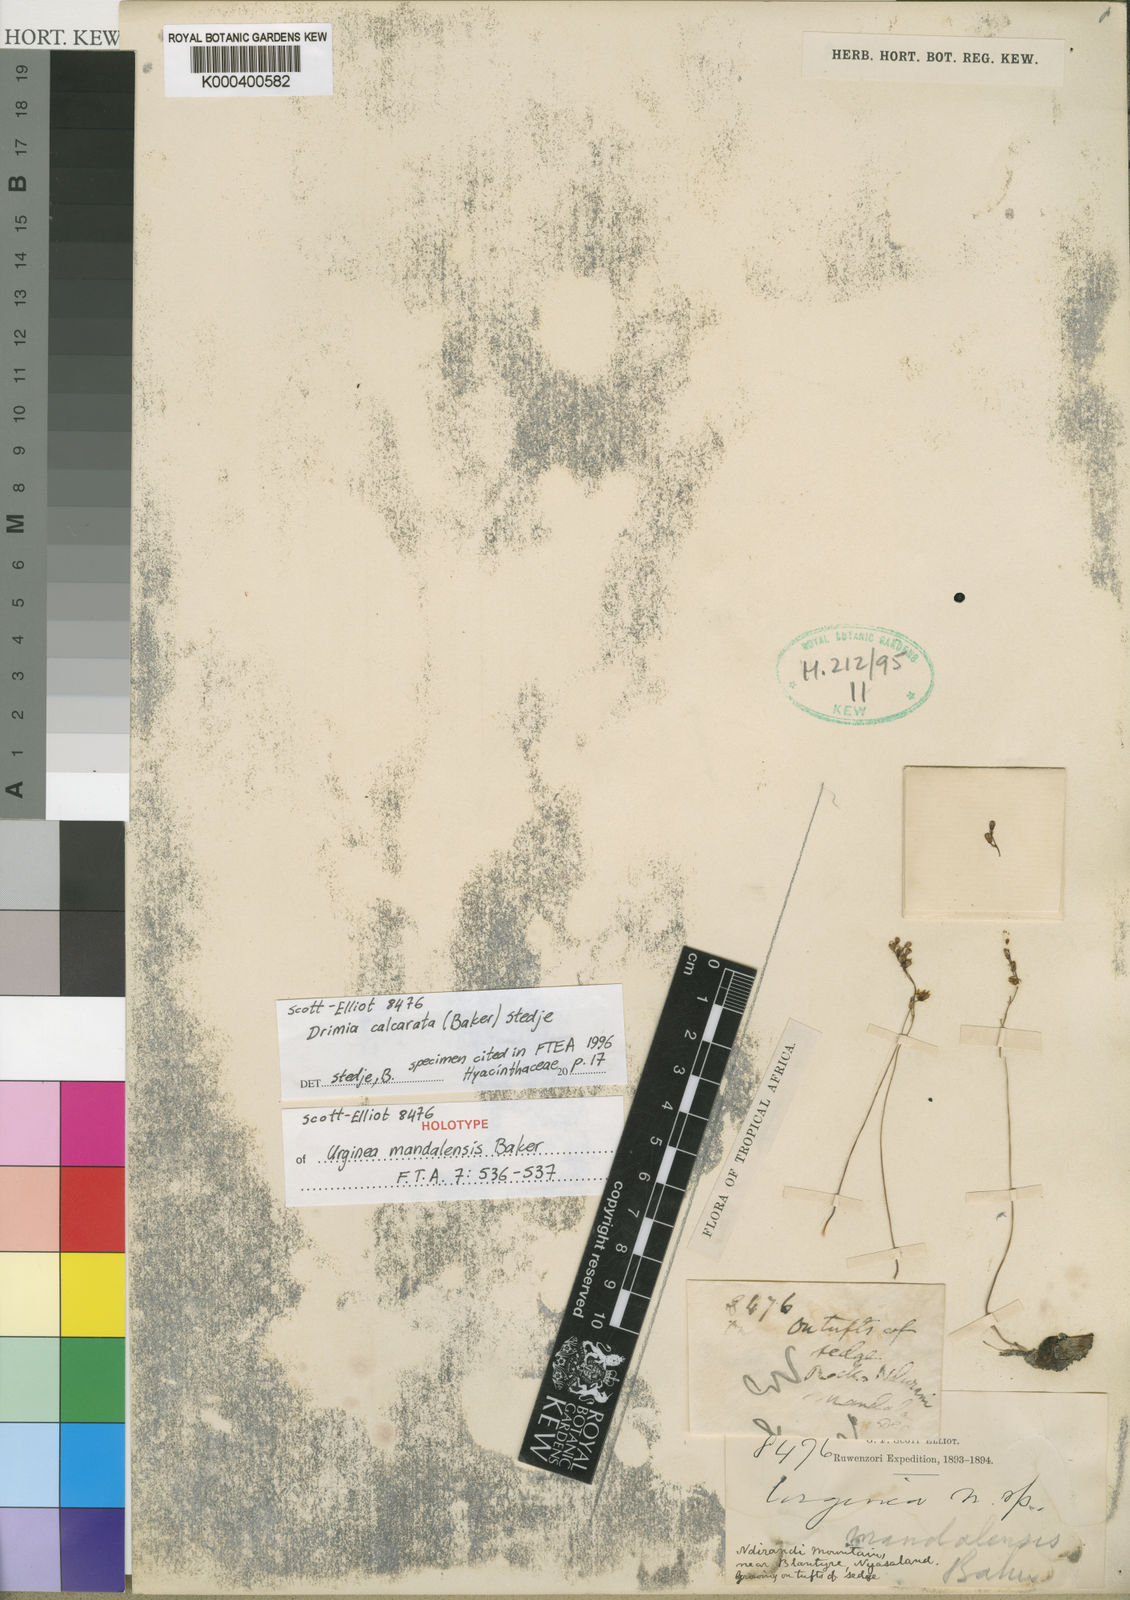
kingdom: Plantae
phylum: Tracheophyta
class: Liliopsida
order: Asparagales
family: Asparagaceae
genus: Drimia
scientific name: Drimia calcarata
